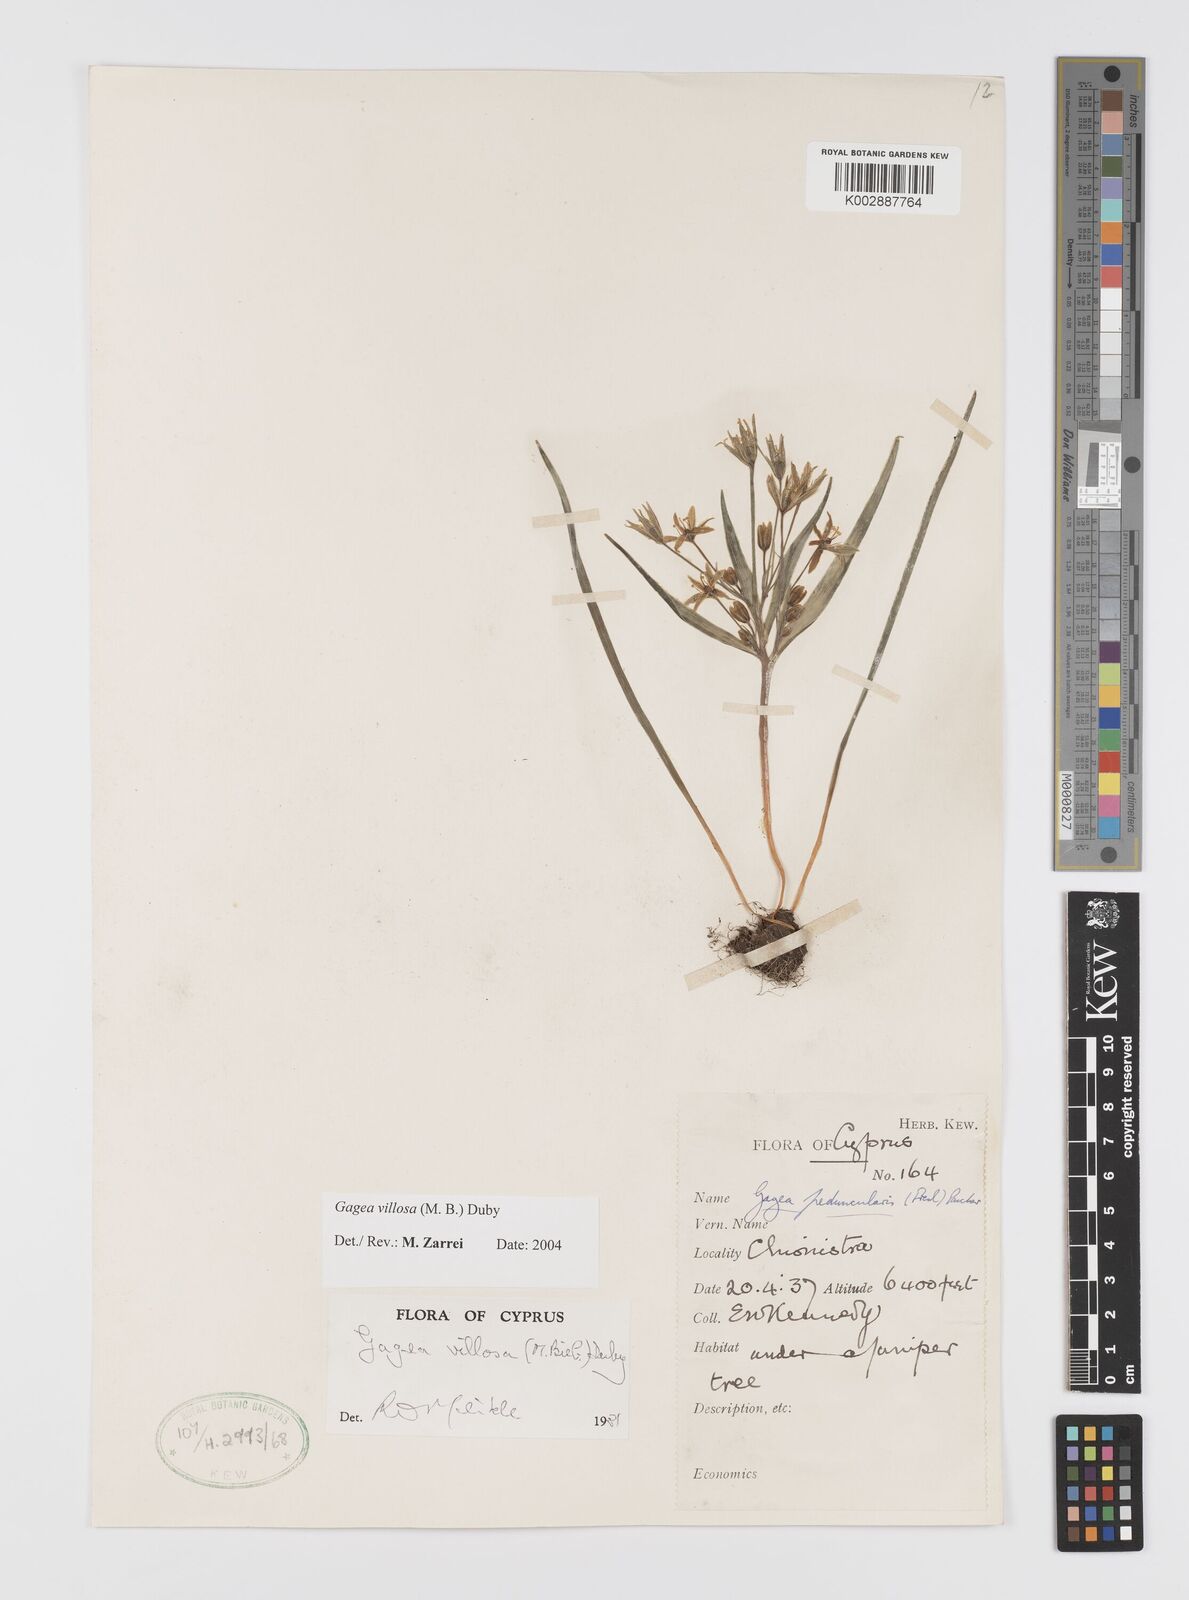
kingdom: Plantae
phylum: Tracheophyta
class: Liliopsida
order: Liliales
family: Liliaceae
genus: Gagea
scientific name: Gagea villosa
